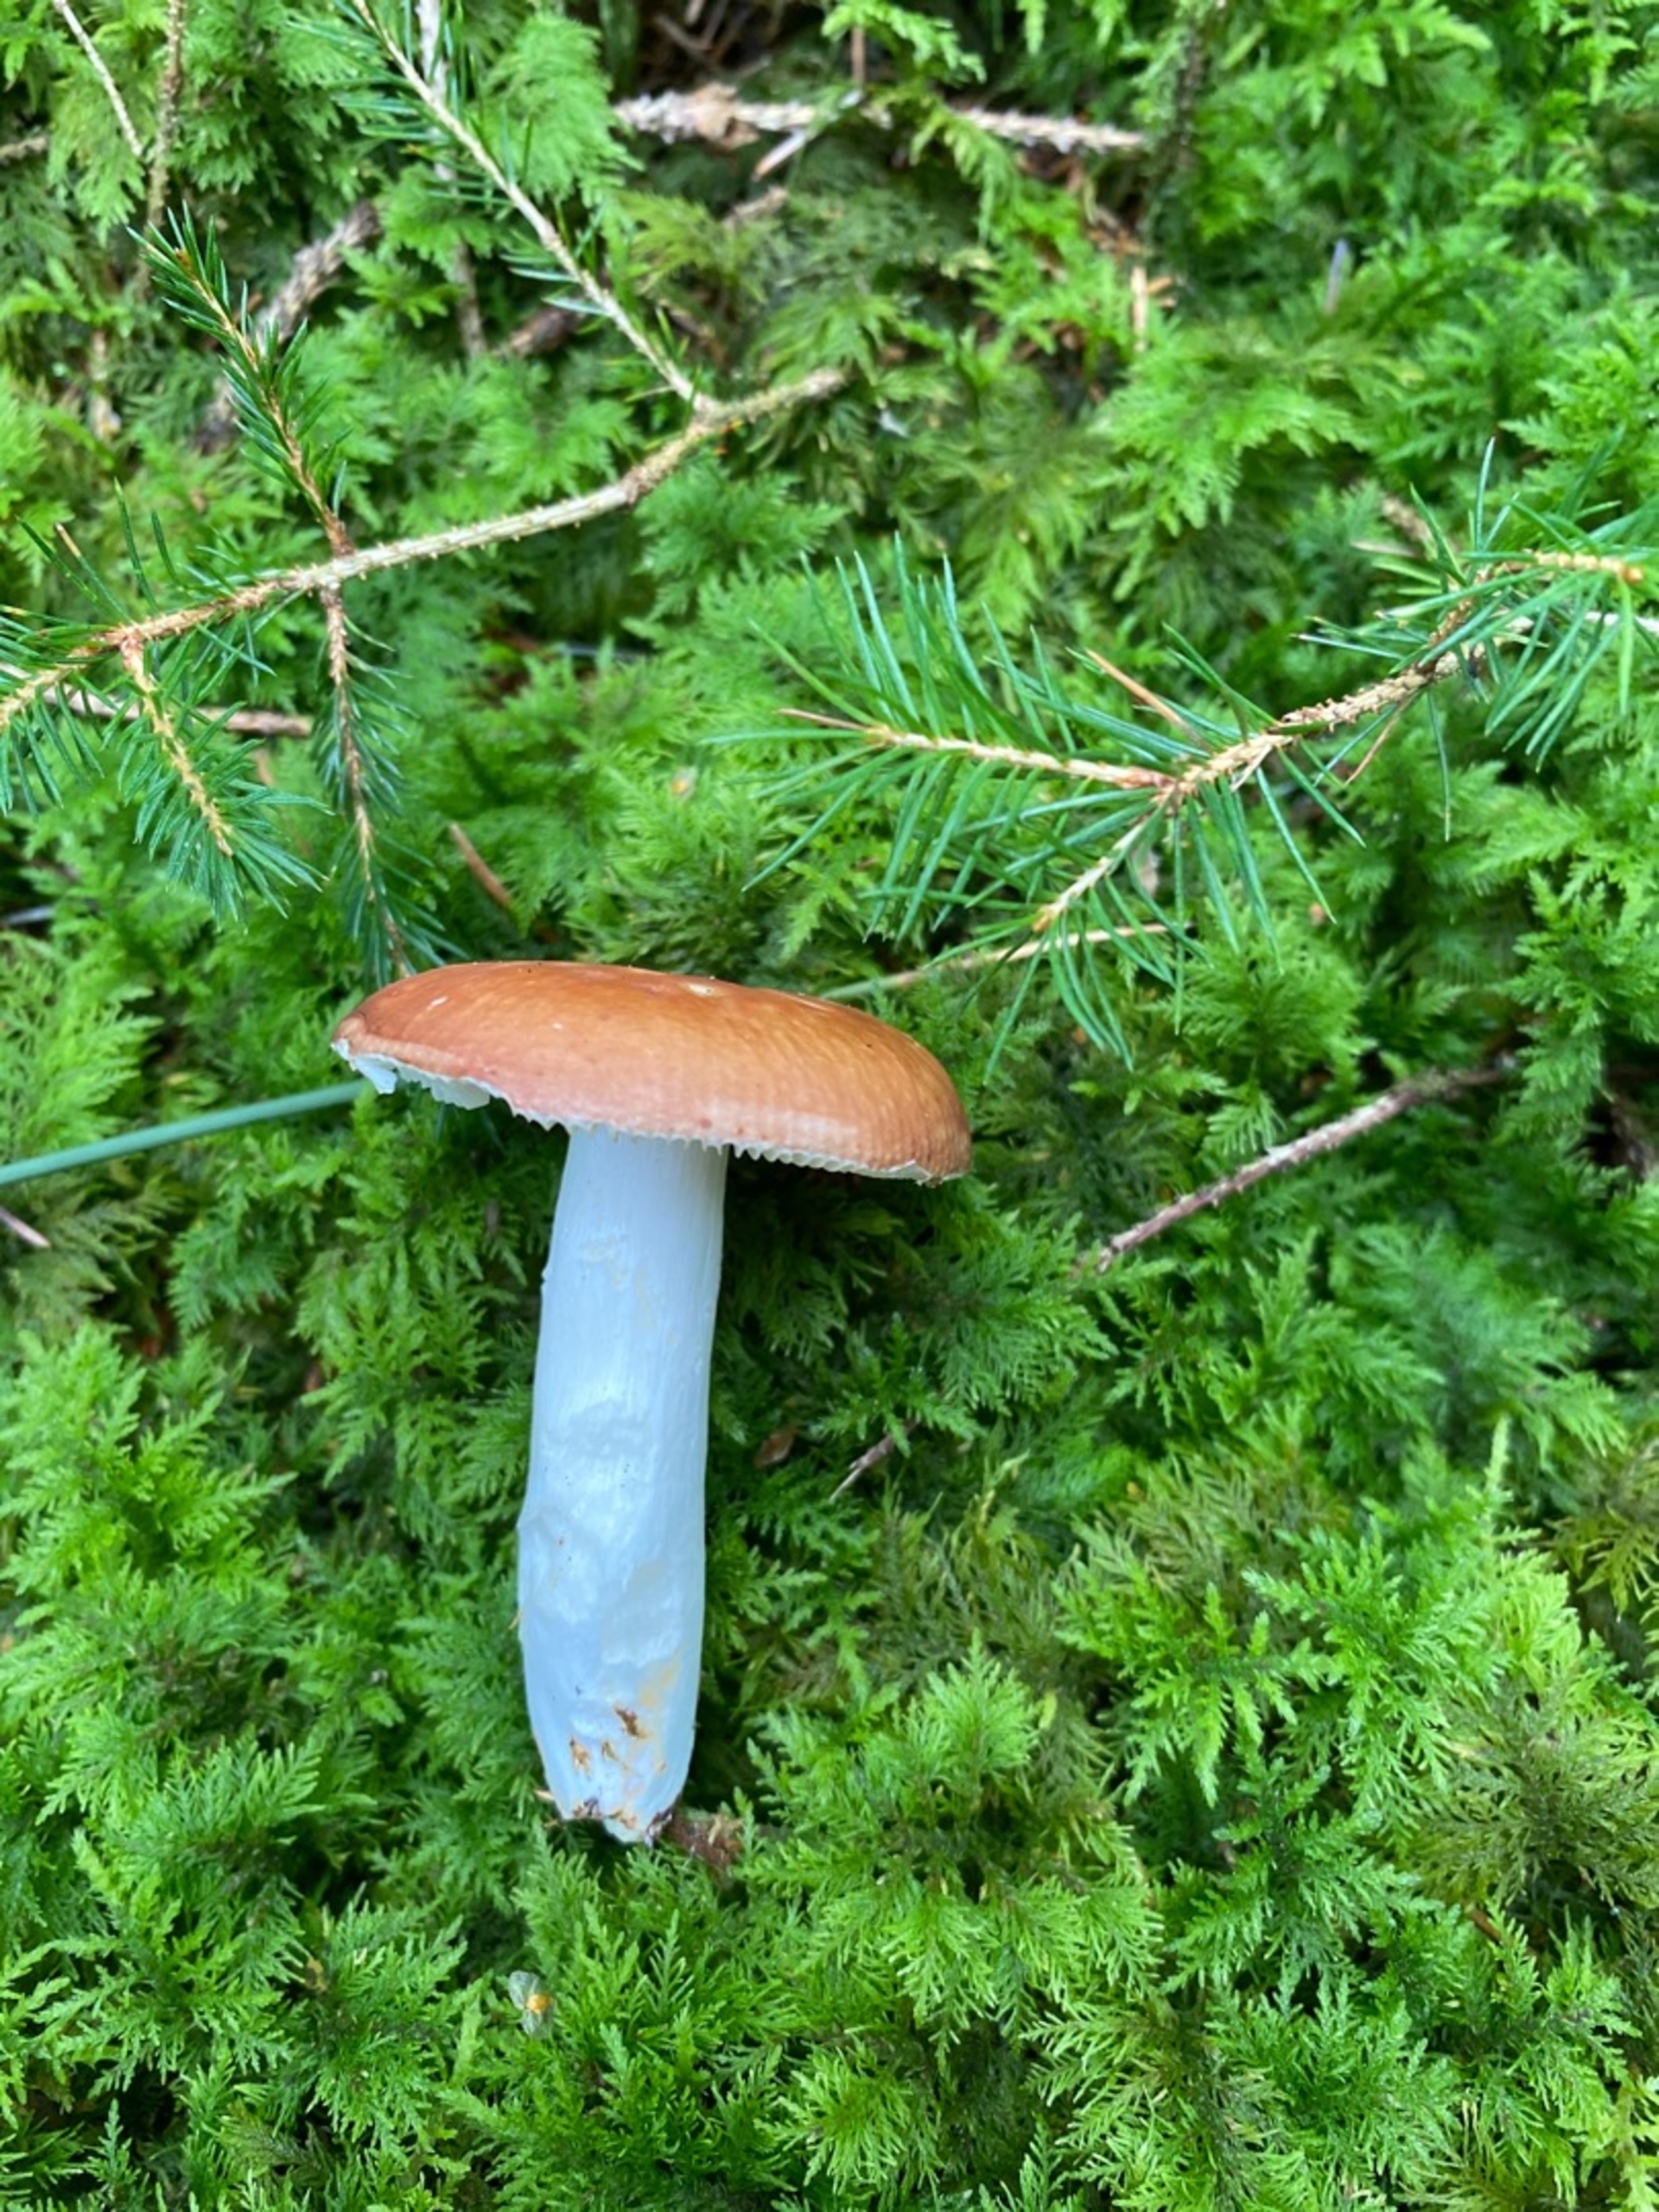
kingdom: Fungi
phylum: Basidiomycota
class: Agaricomycetes
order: Russulales
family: Russulaceae
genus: Russula
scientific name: Russula
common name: Skørhat
